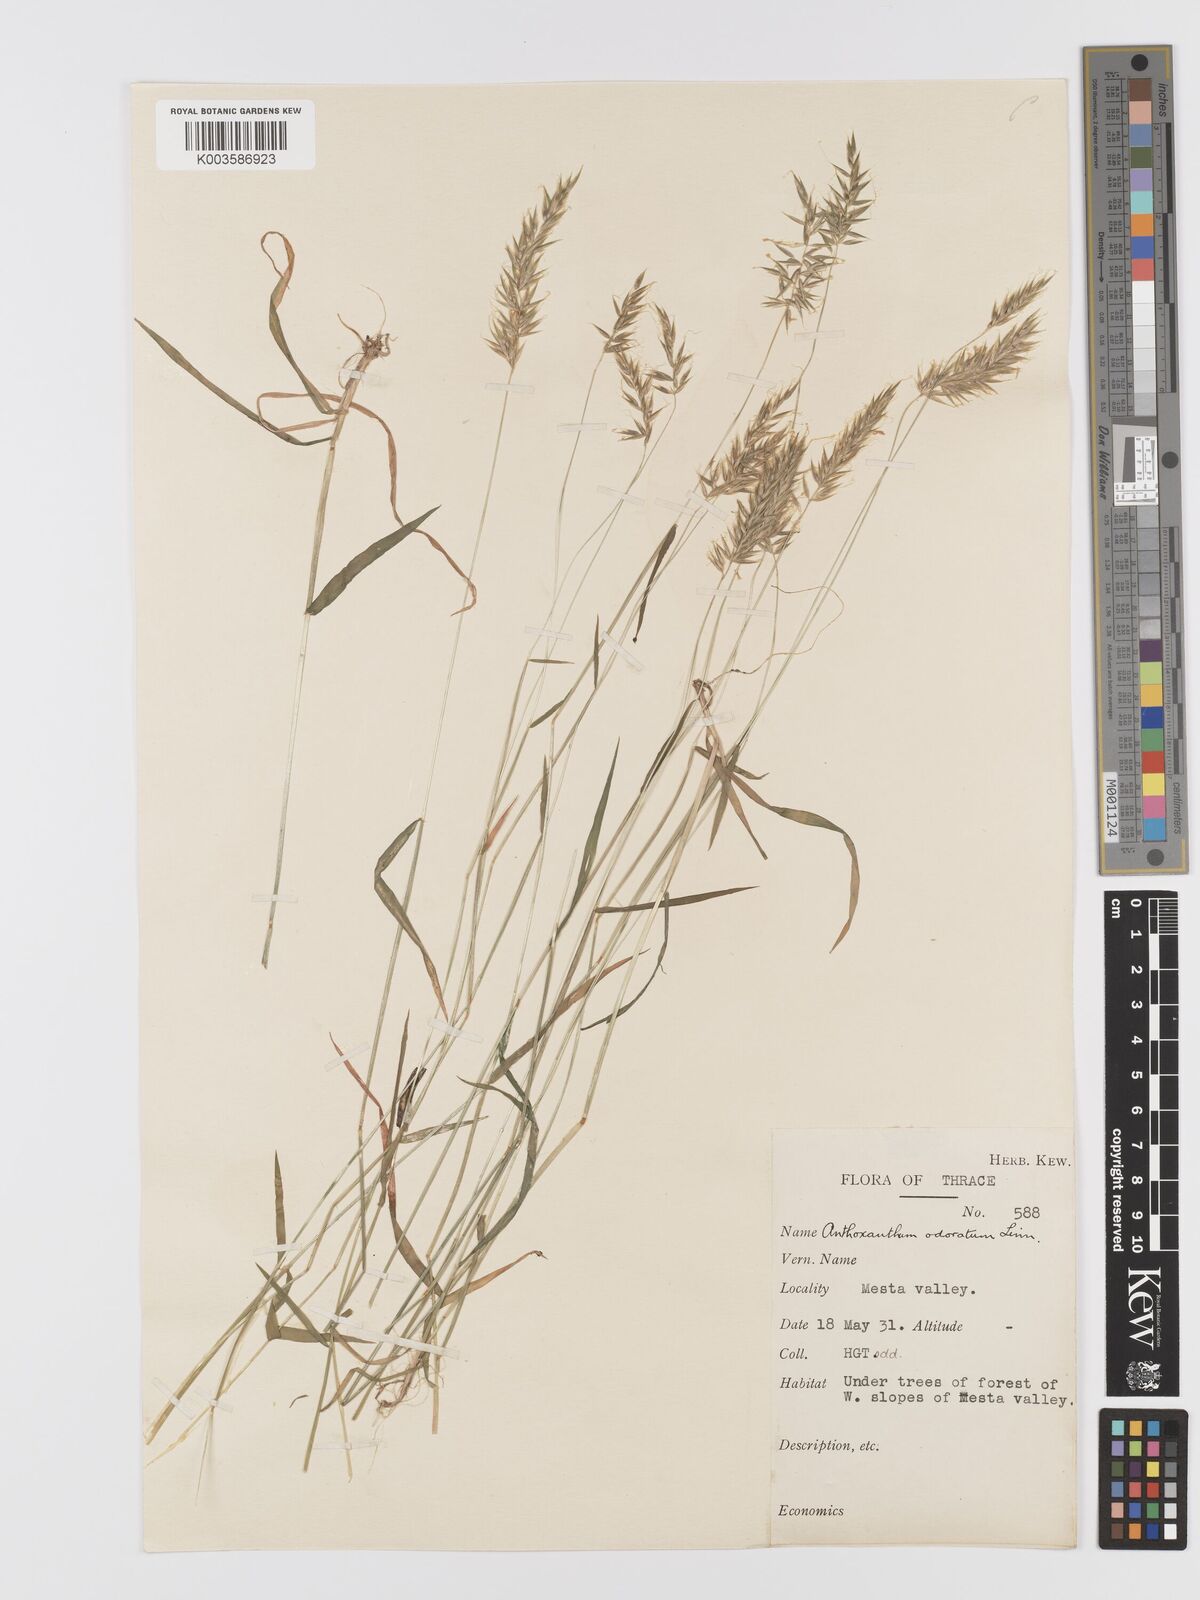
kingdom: Plantae
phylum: Tracheophyta
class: Liliopsida
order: Poales
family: Poaceae
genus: Anthoxanthum
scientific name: Anthoxanthum gracile
